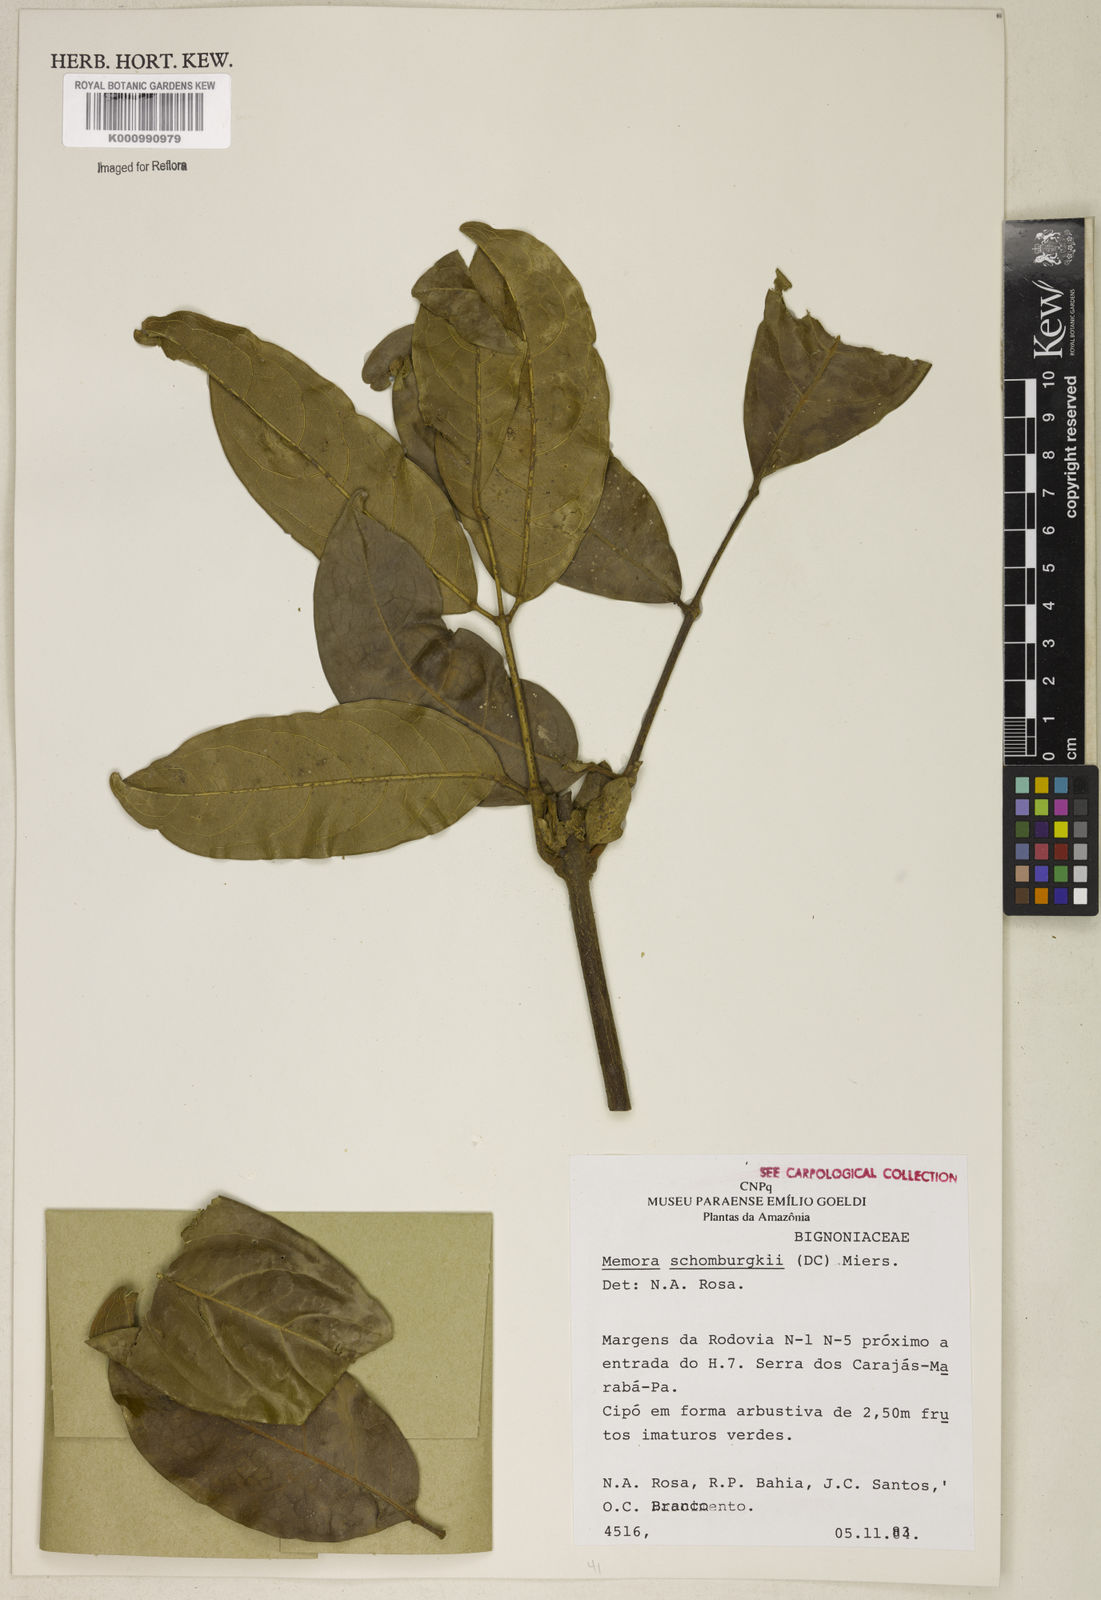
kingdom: Plantae
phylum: Tracheophyta
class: Magnoliopsida
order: Lamiales
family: Bignoniaceae
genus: Adenocalymma
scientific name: Adenocalymma schomburgkii
